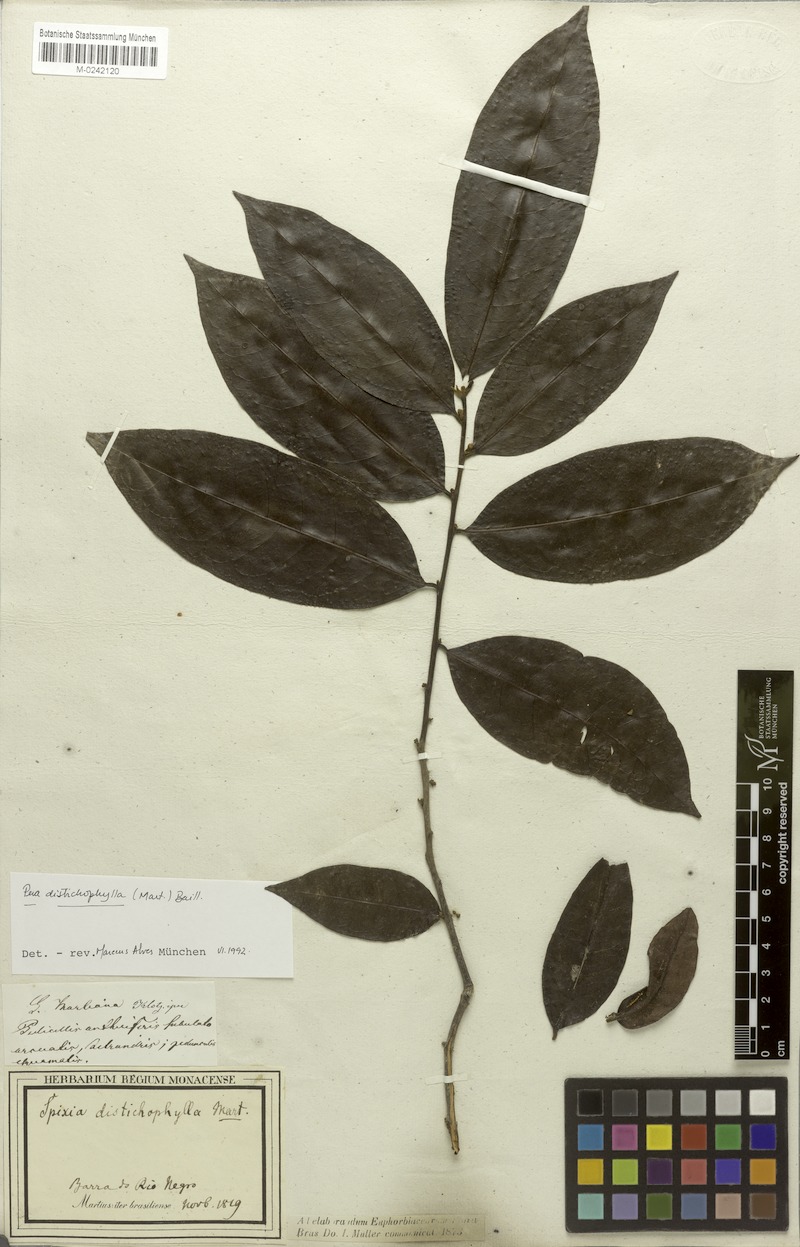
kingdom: Plantae
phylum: Tracheophyta
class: Magnoliopsida
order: Malpighiales
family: Peraceae
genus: Pera
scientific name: Pera distichophylla
